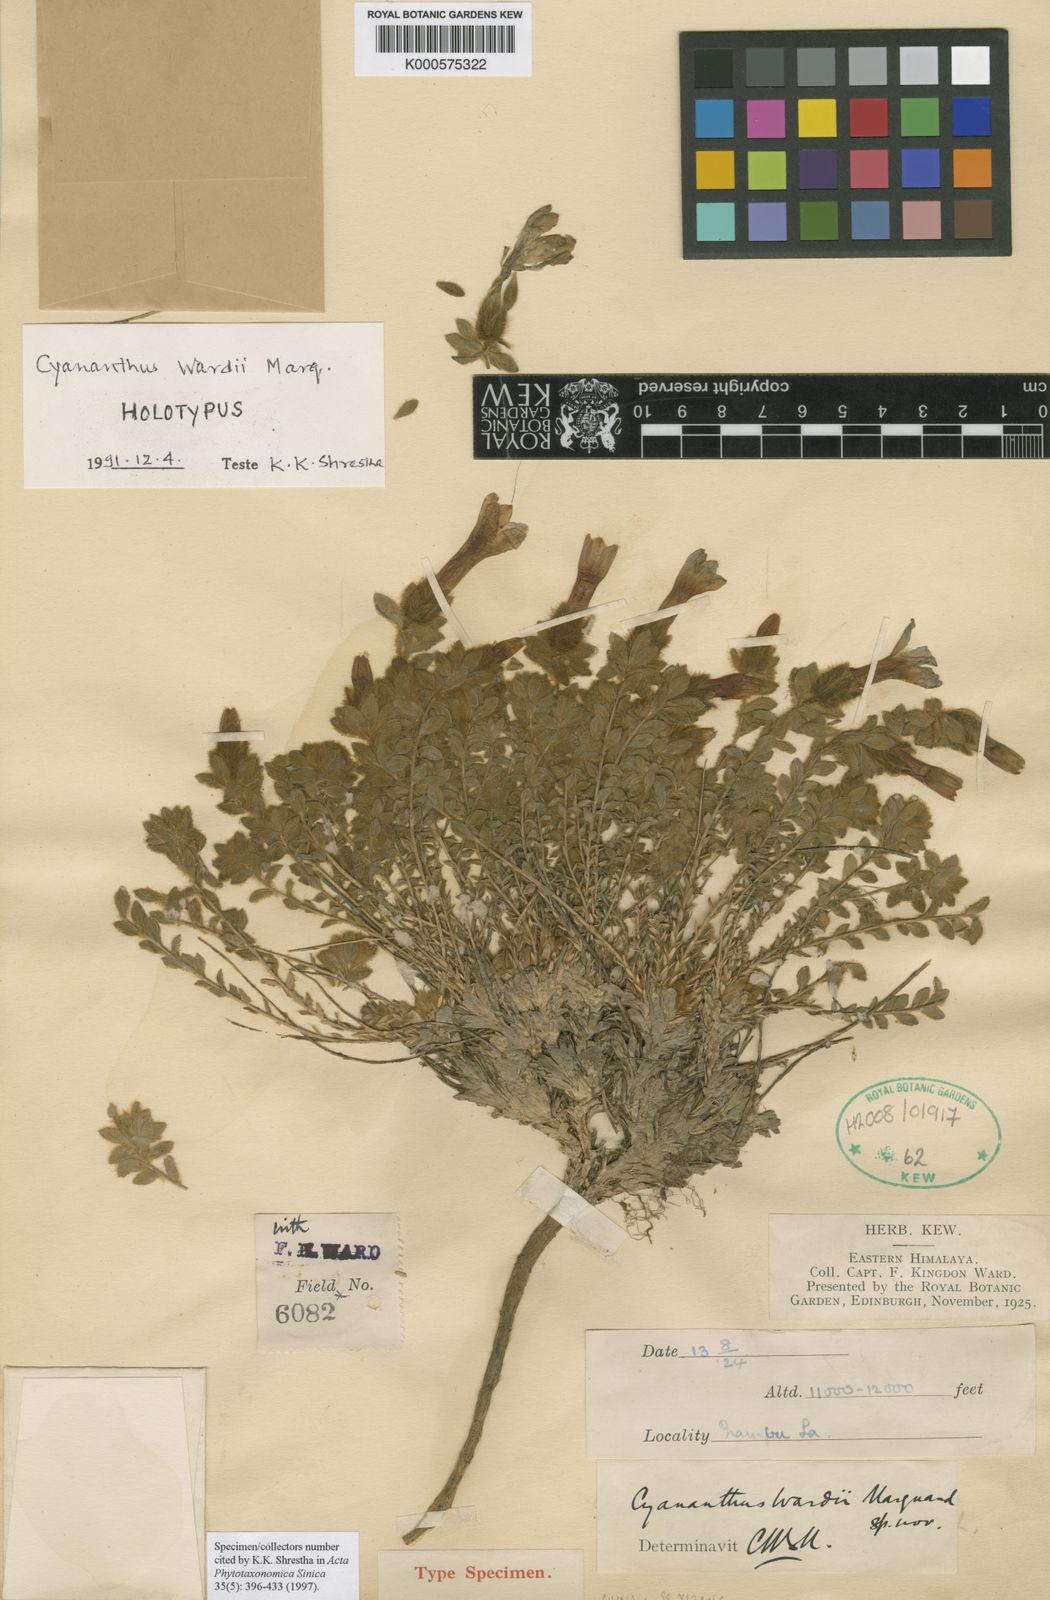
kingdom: Plantae
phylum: Tracheophyta
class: Magnoliopsida
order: Asterales
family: Campanulaceae
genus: Cyananthus
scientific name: Cyananthus wardii
